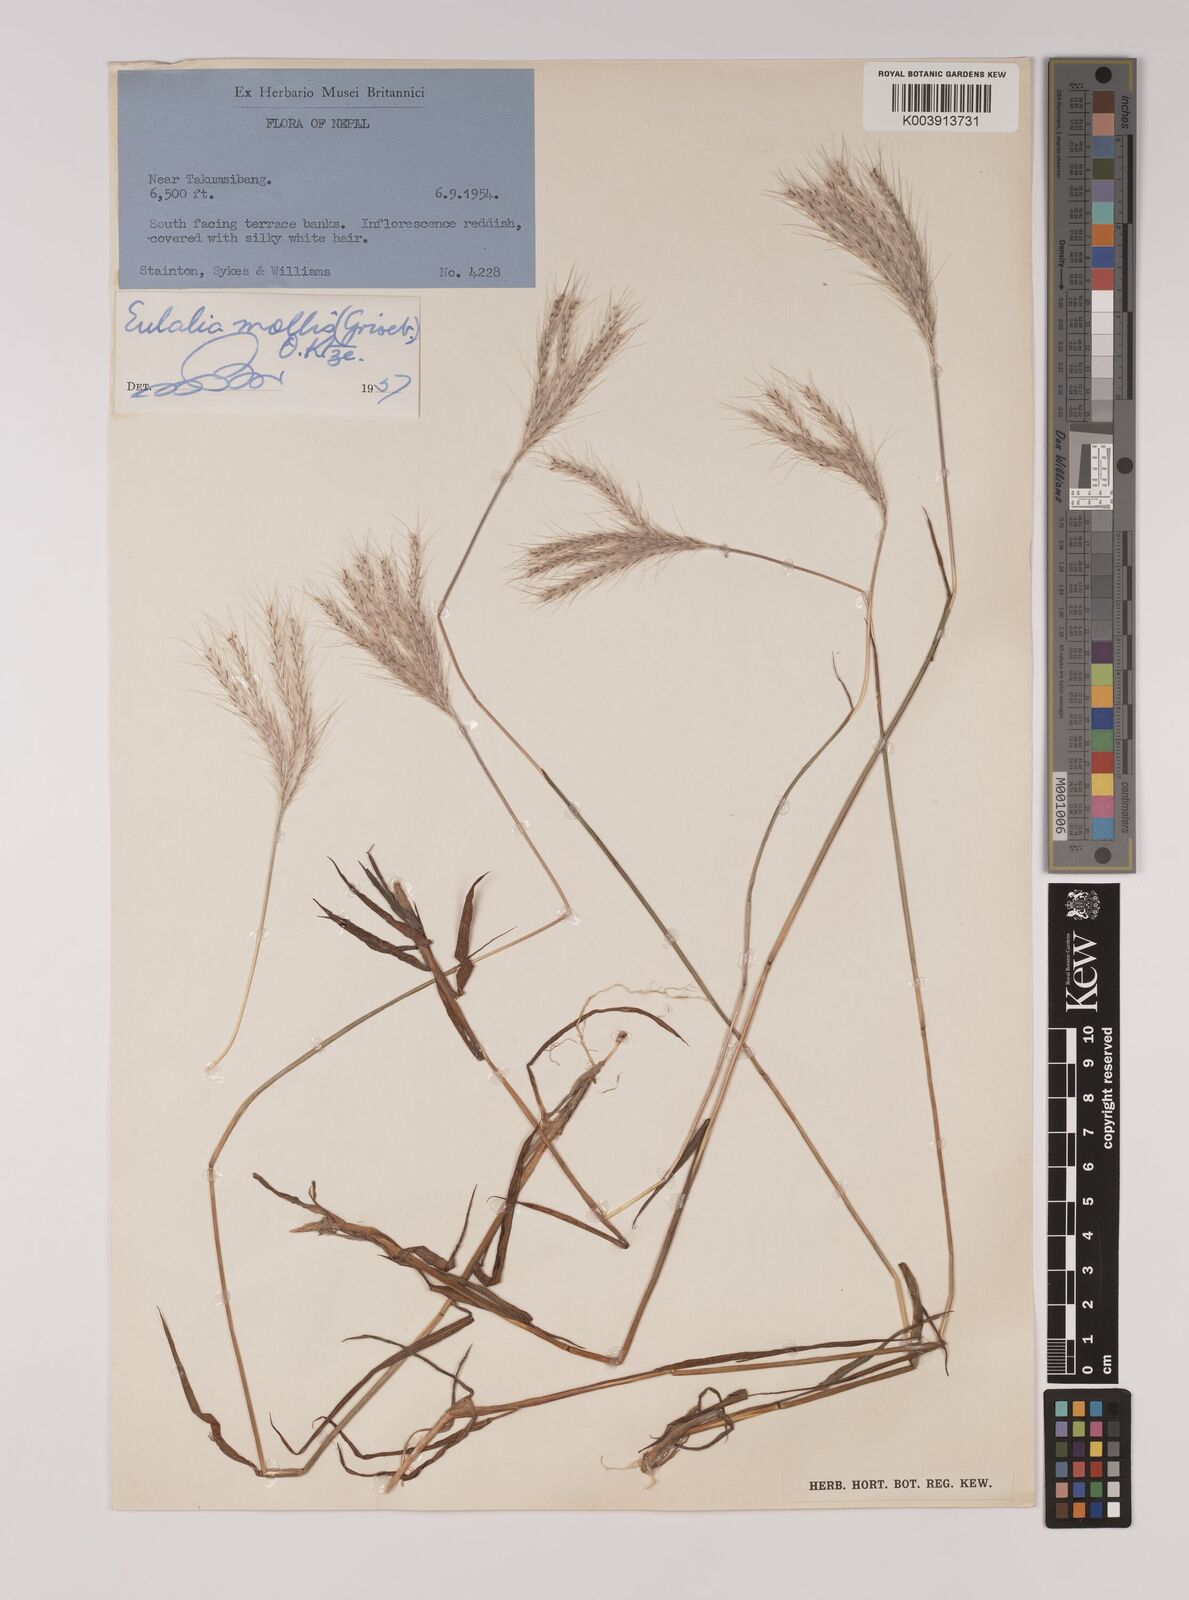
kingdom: Plantae
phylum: Tracheophyta
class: Liliopsida
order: Poales
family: Poaceae
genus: Eulalia
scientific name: Eulalia mollis
